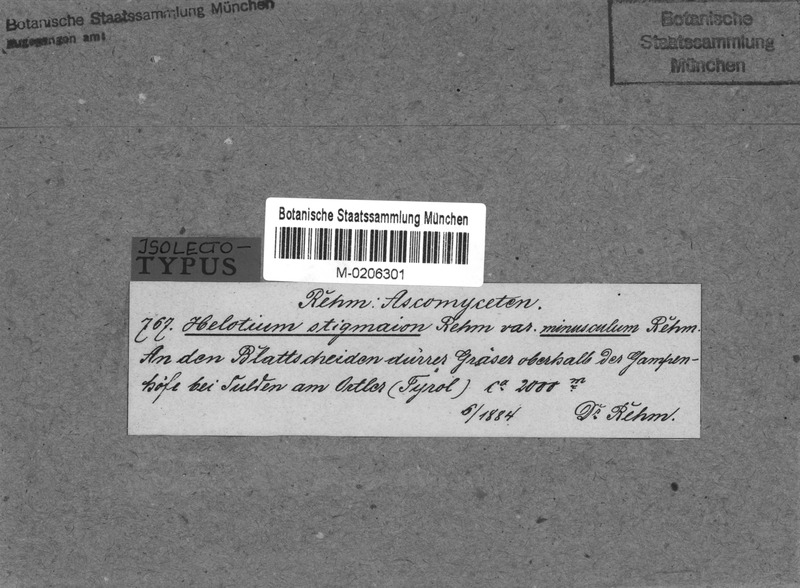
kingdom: Fungi
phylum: Ascomycota
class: Leotiomycetes
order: Helotiales
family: Helotiaceae
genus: Crocicreas
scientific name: Crocicreas gramineum
